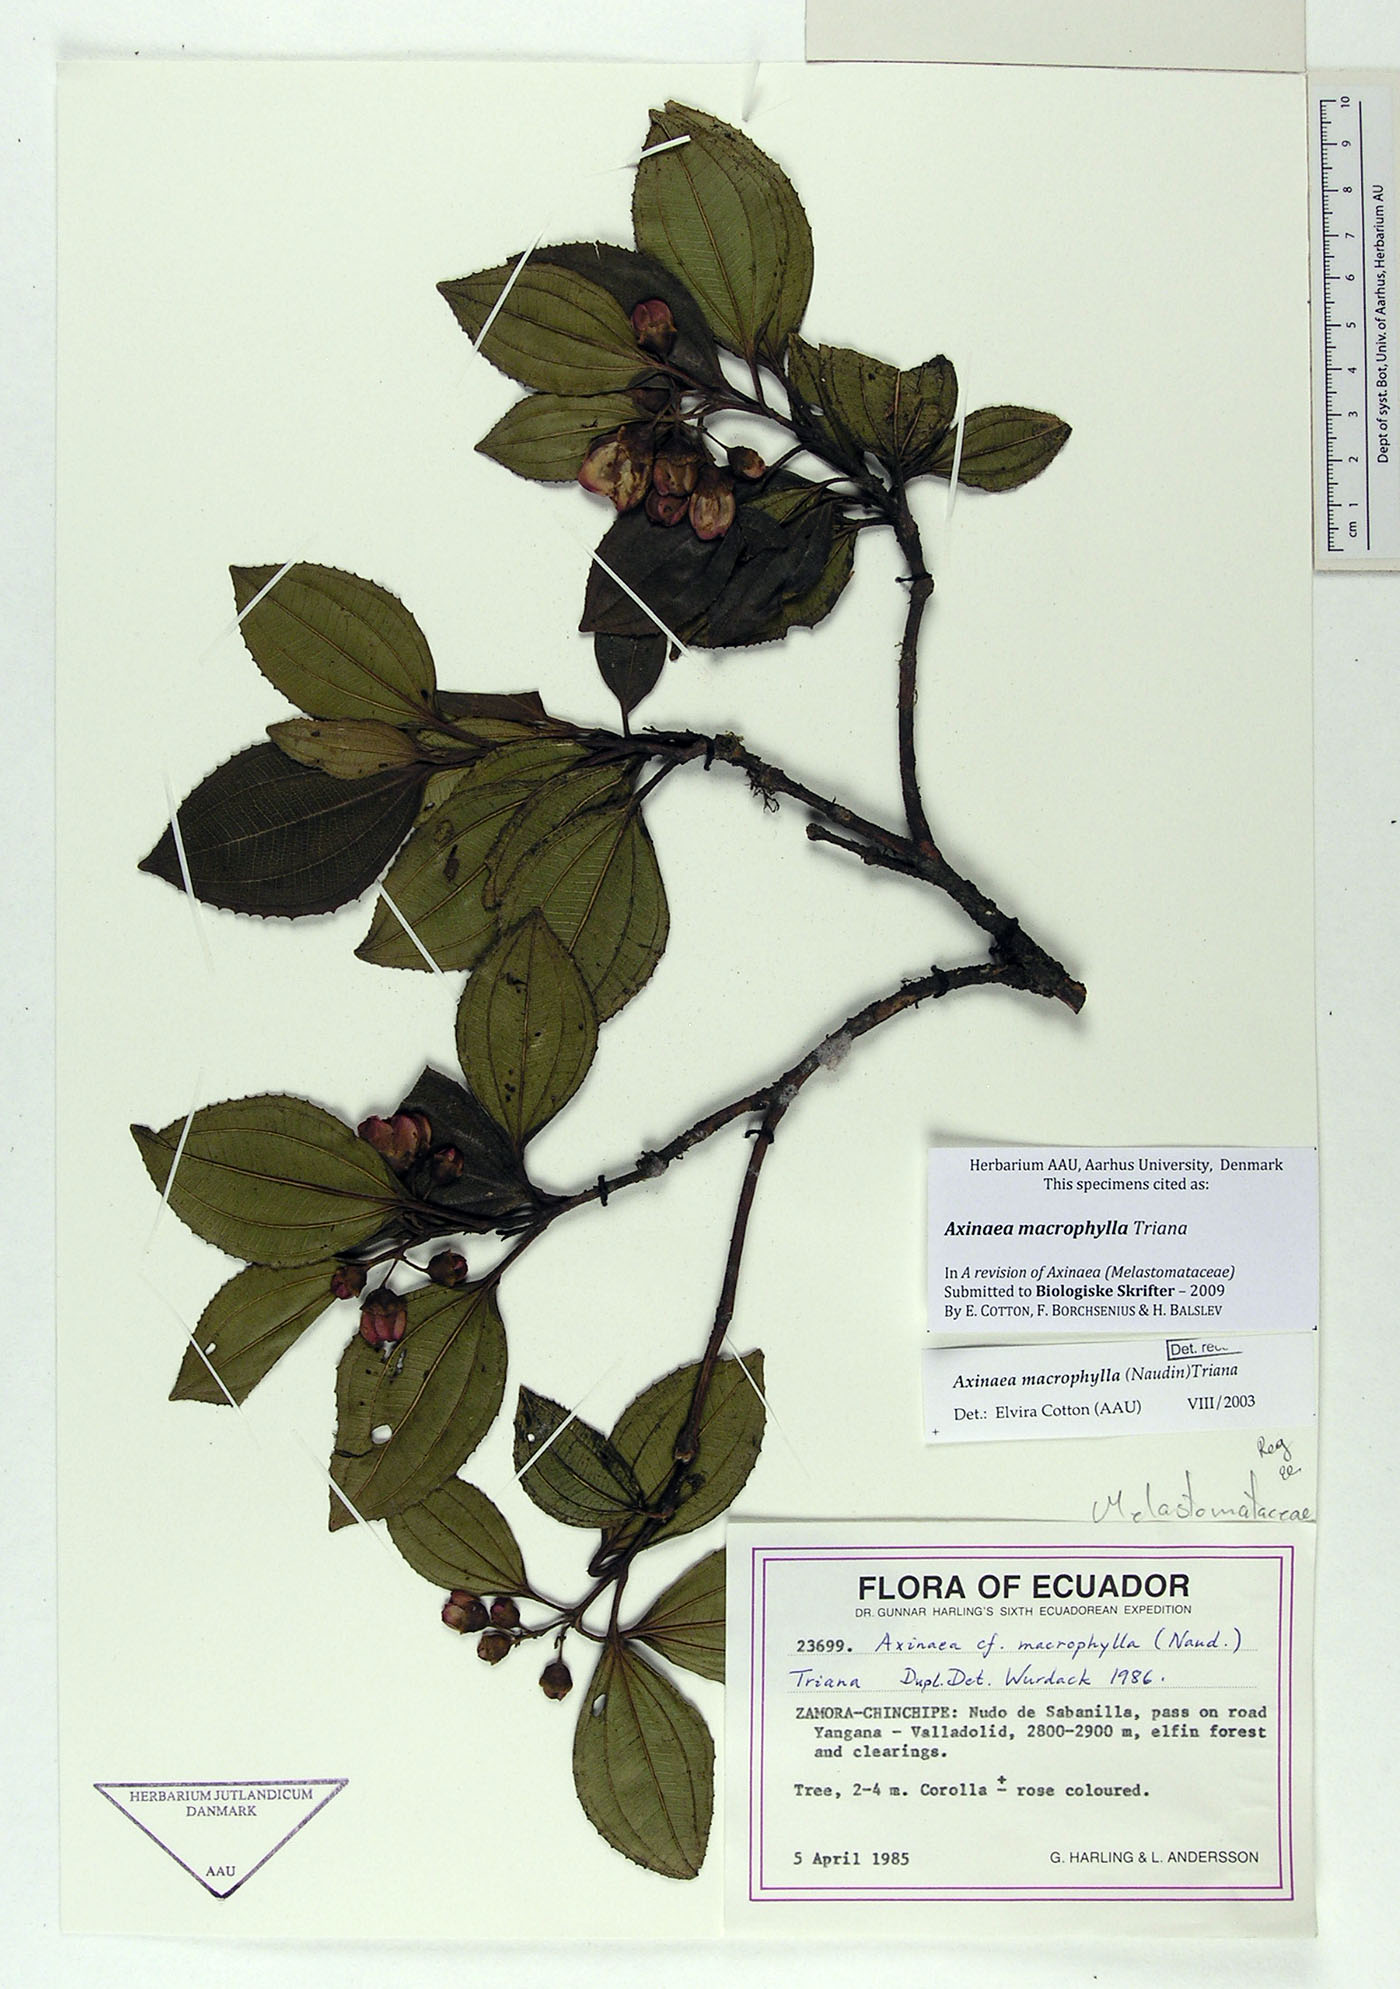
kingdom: Plantae
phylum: Tracheophyta
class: Magnoliopsida
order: Myrtales
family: Melastomataceae
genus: Axinaea
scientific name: Axinaea macrophylla
